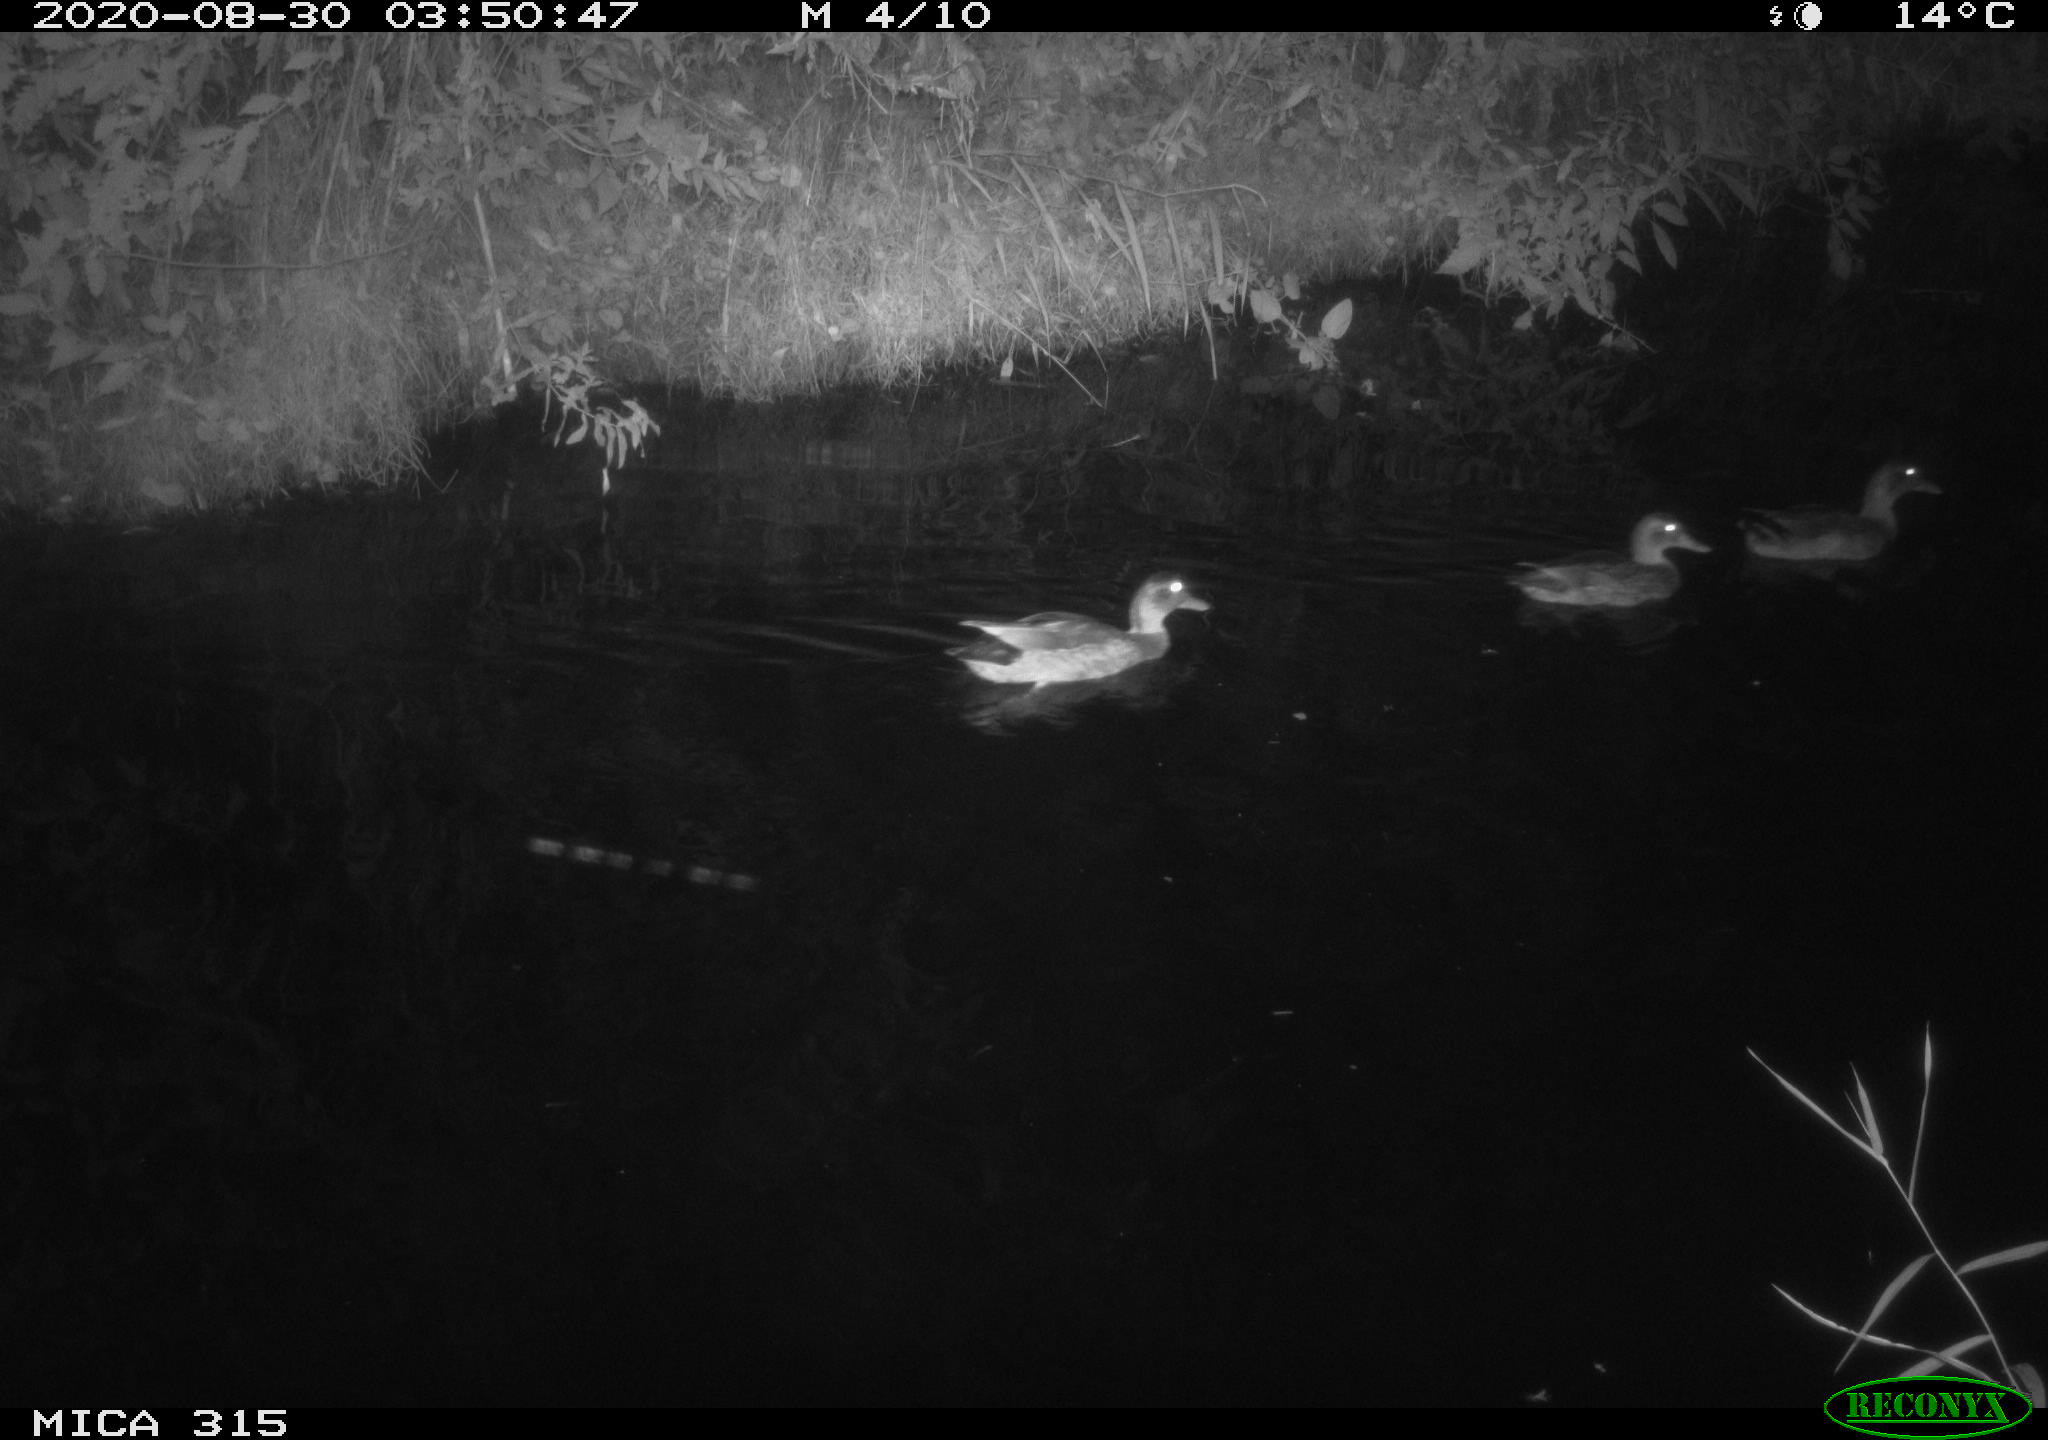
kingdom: Animalia
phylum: Chordata
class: Aves
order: Anseriformes
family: Anatidae
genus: Anas
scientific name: Anas platyrhynchos
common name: Mallard
